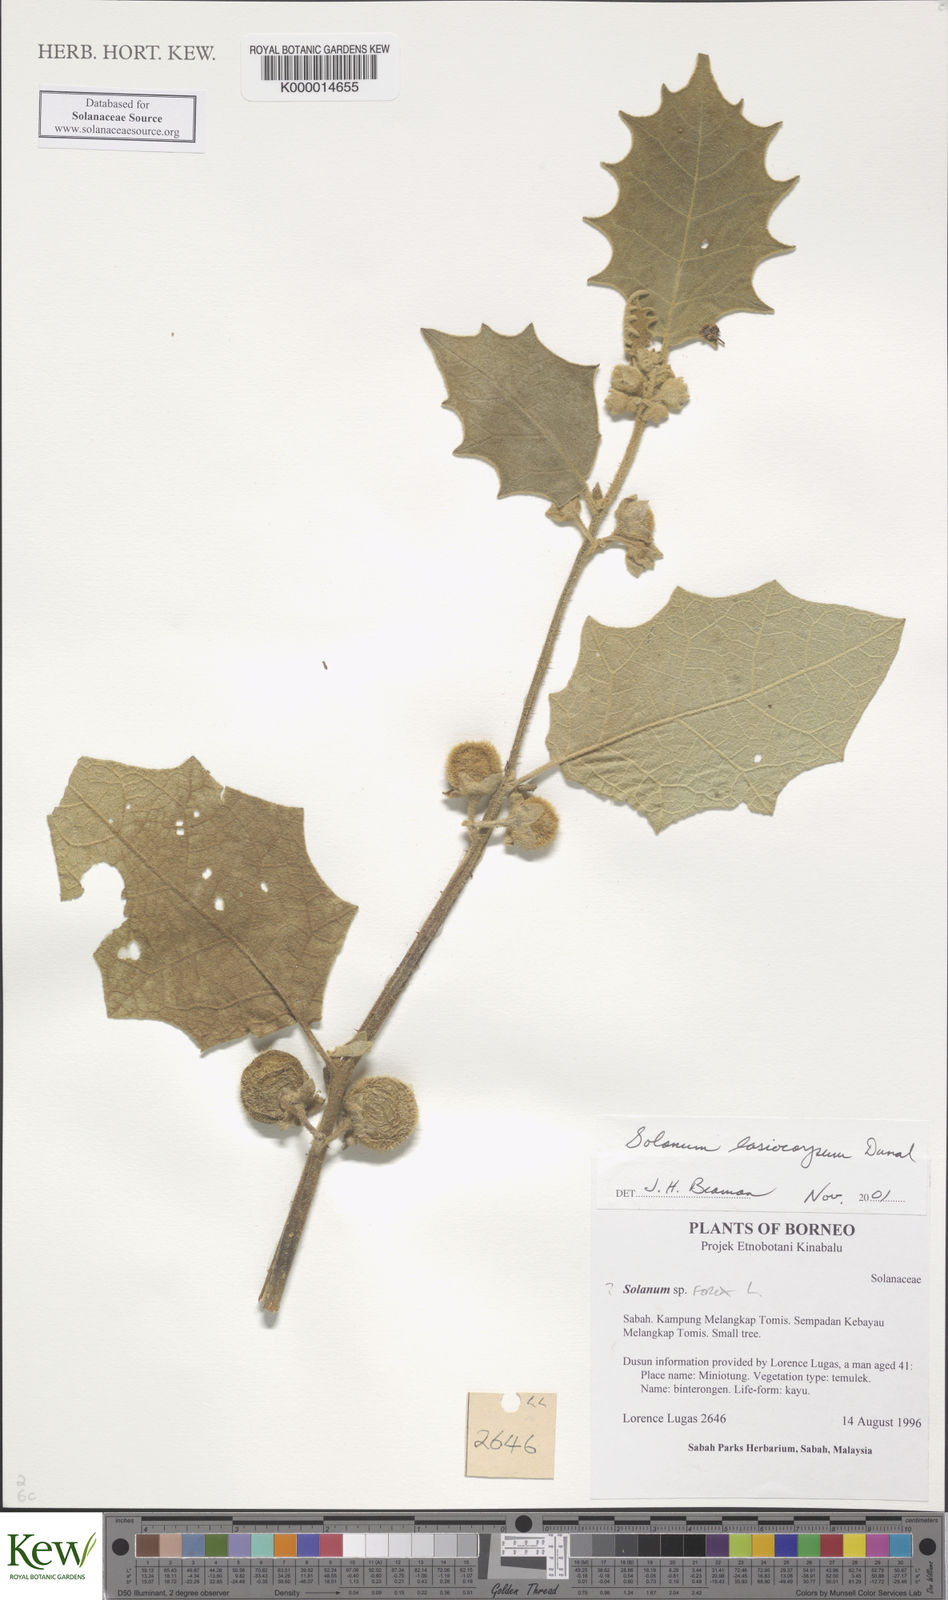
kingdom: Plantae
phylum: Tracheophyta
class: Magnoliopsida
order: Solanales
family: Solanaceae
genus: Solanum
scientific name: Solanum lasiocarpum
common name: Indian nightshade
